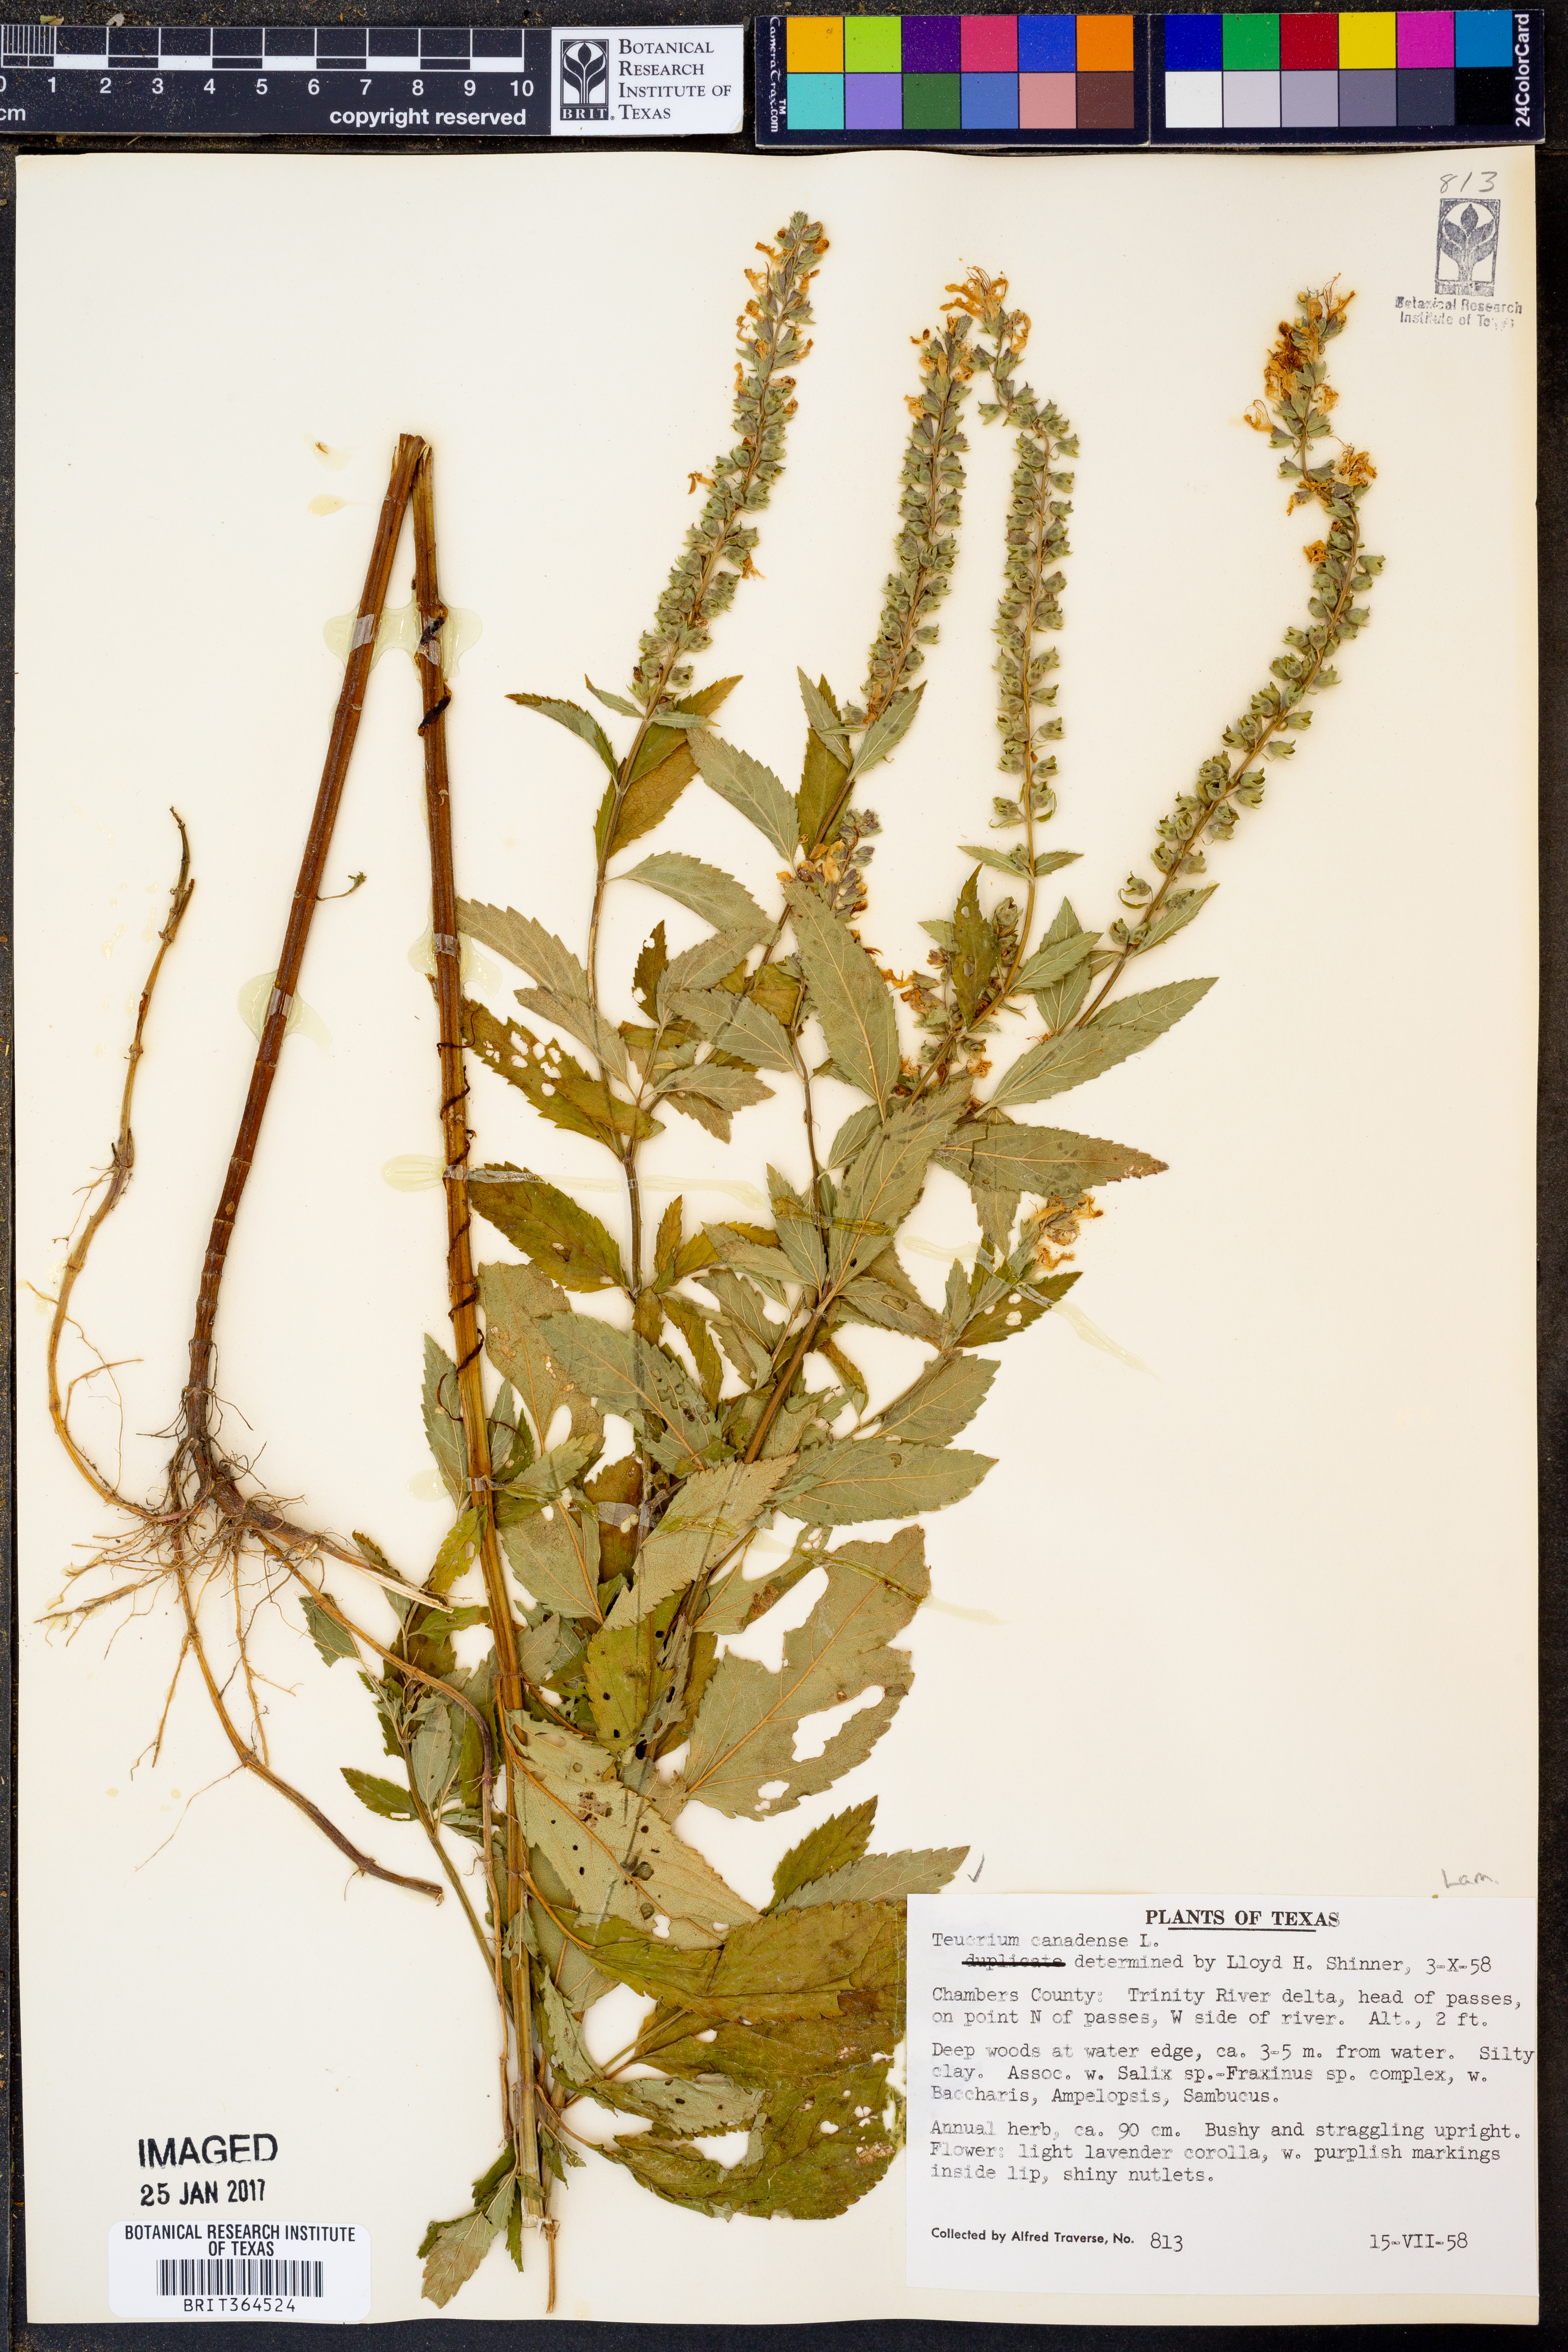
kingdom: Plantae
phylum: Tracheophyta
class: Magnoliopsida
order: Lamiales
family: Lamiaceae
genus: Teucrium
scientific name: Teucrium canadense
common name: American germander
